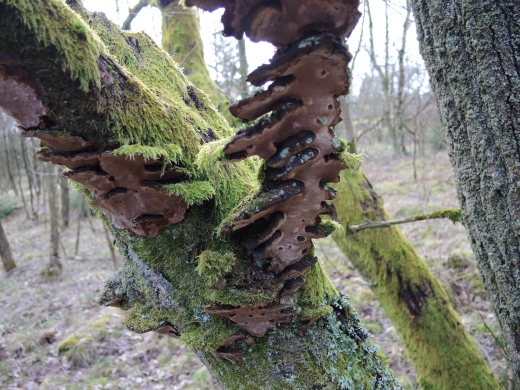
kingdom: Fungi
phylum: Basidiomycota
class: Agaricomycetes
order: Hymenochaetales
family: Hymenochaetaceae
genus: Phellinopsis
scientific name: Phellinopsis conchata
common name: pile-ildporesvamp
